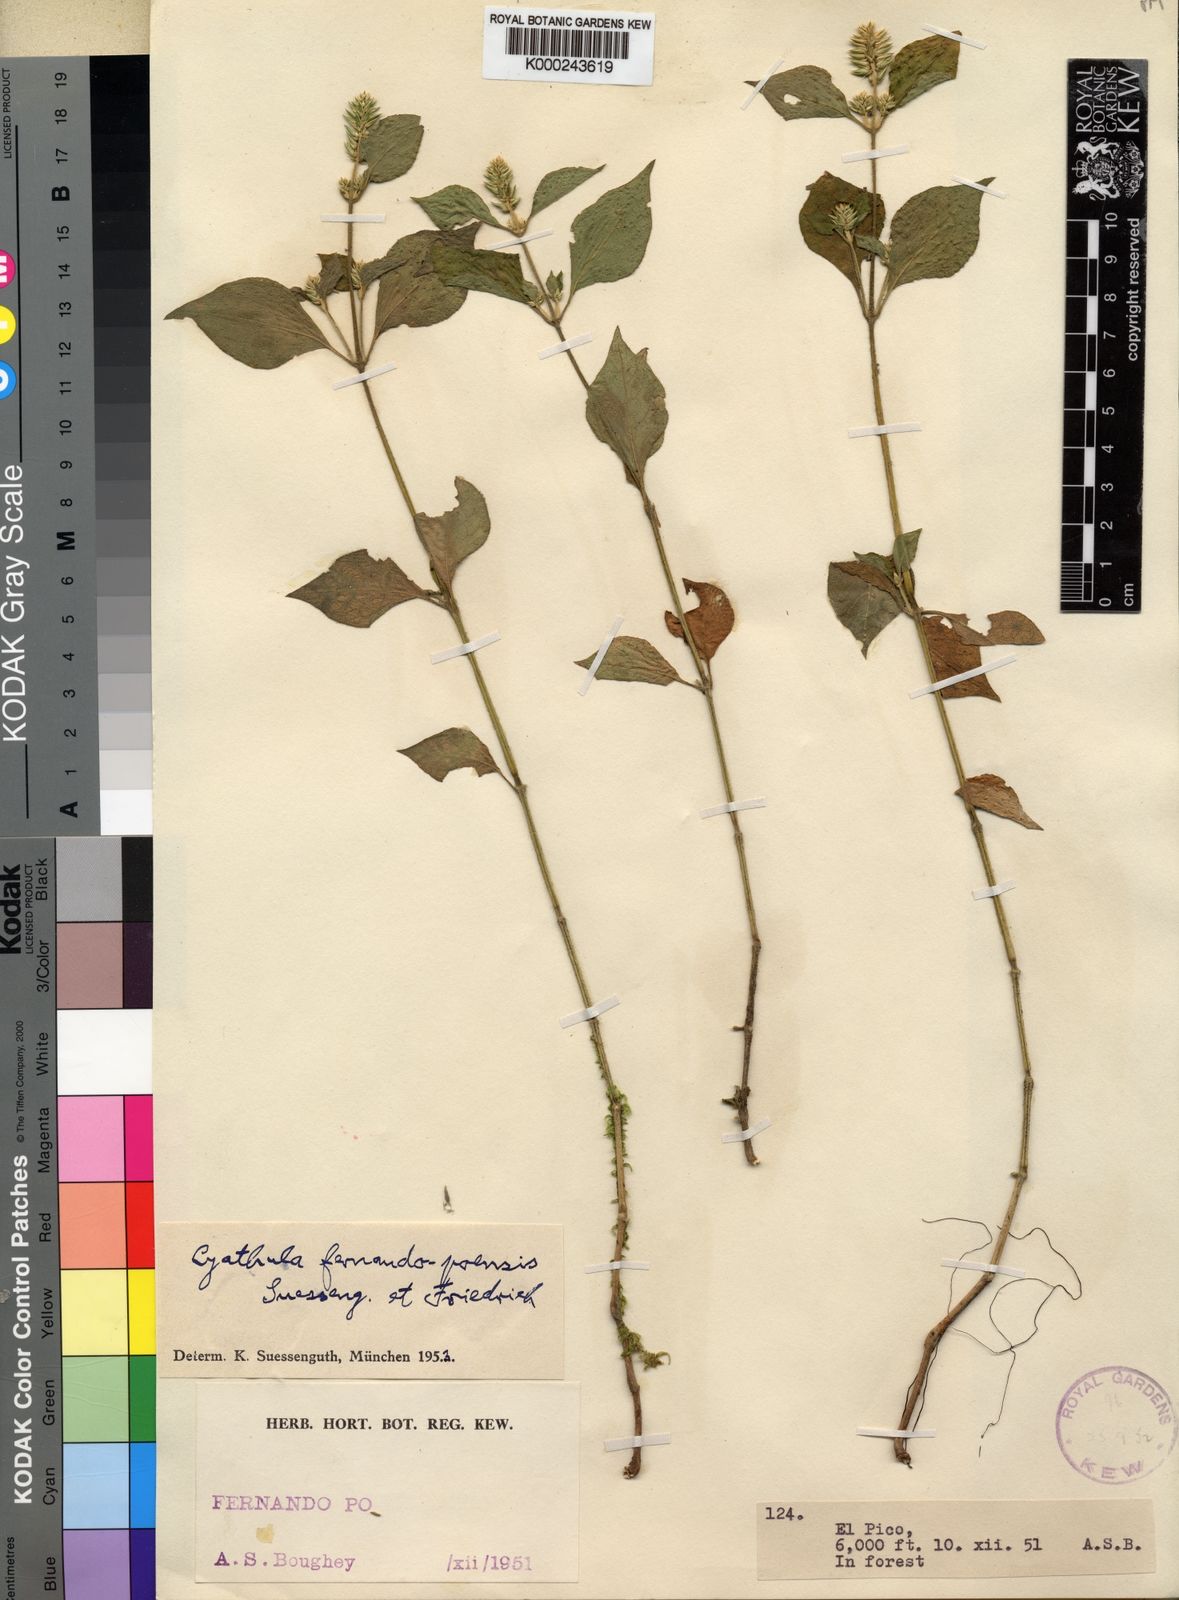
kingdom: Plantae
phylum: Tracheophyta
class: Magnoliopsida
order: Caryophyllales
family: Amaranthaceae
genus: Cyathula
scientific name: Cyathula fernando-poensis
